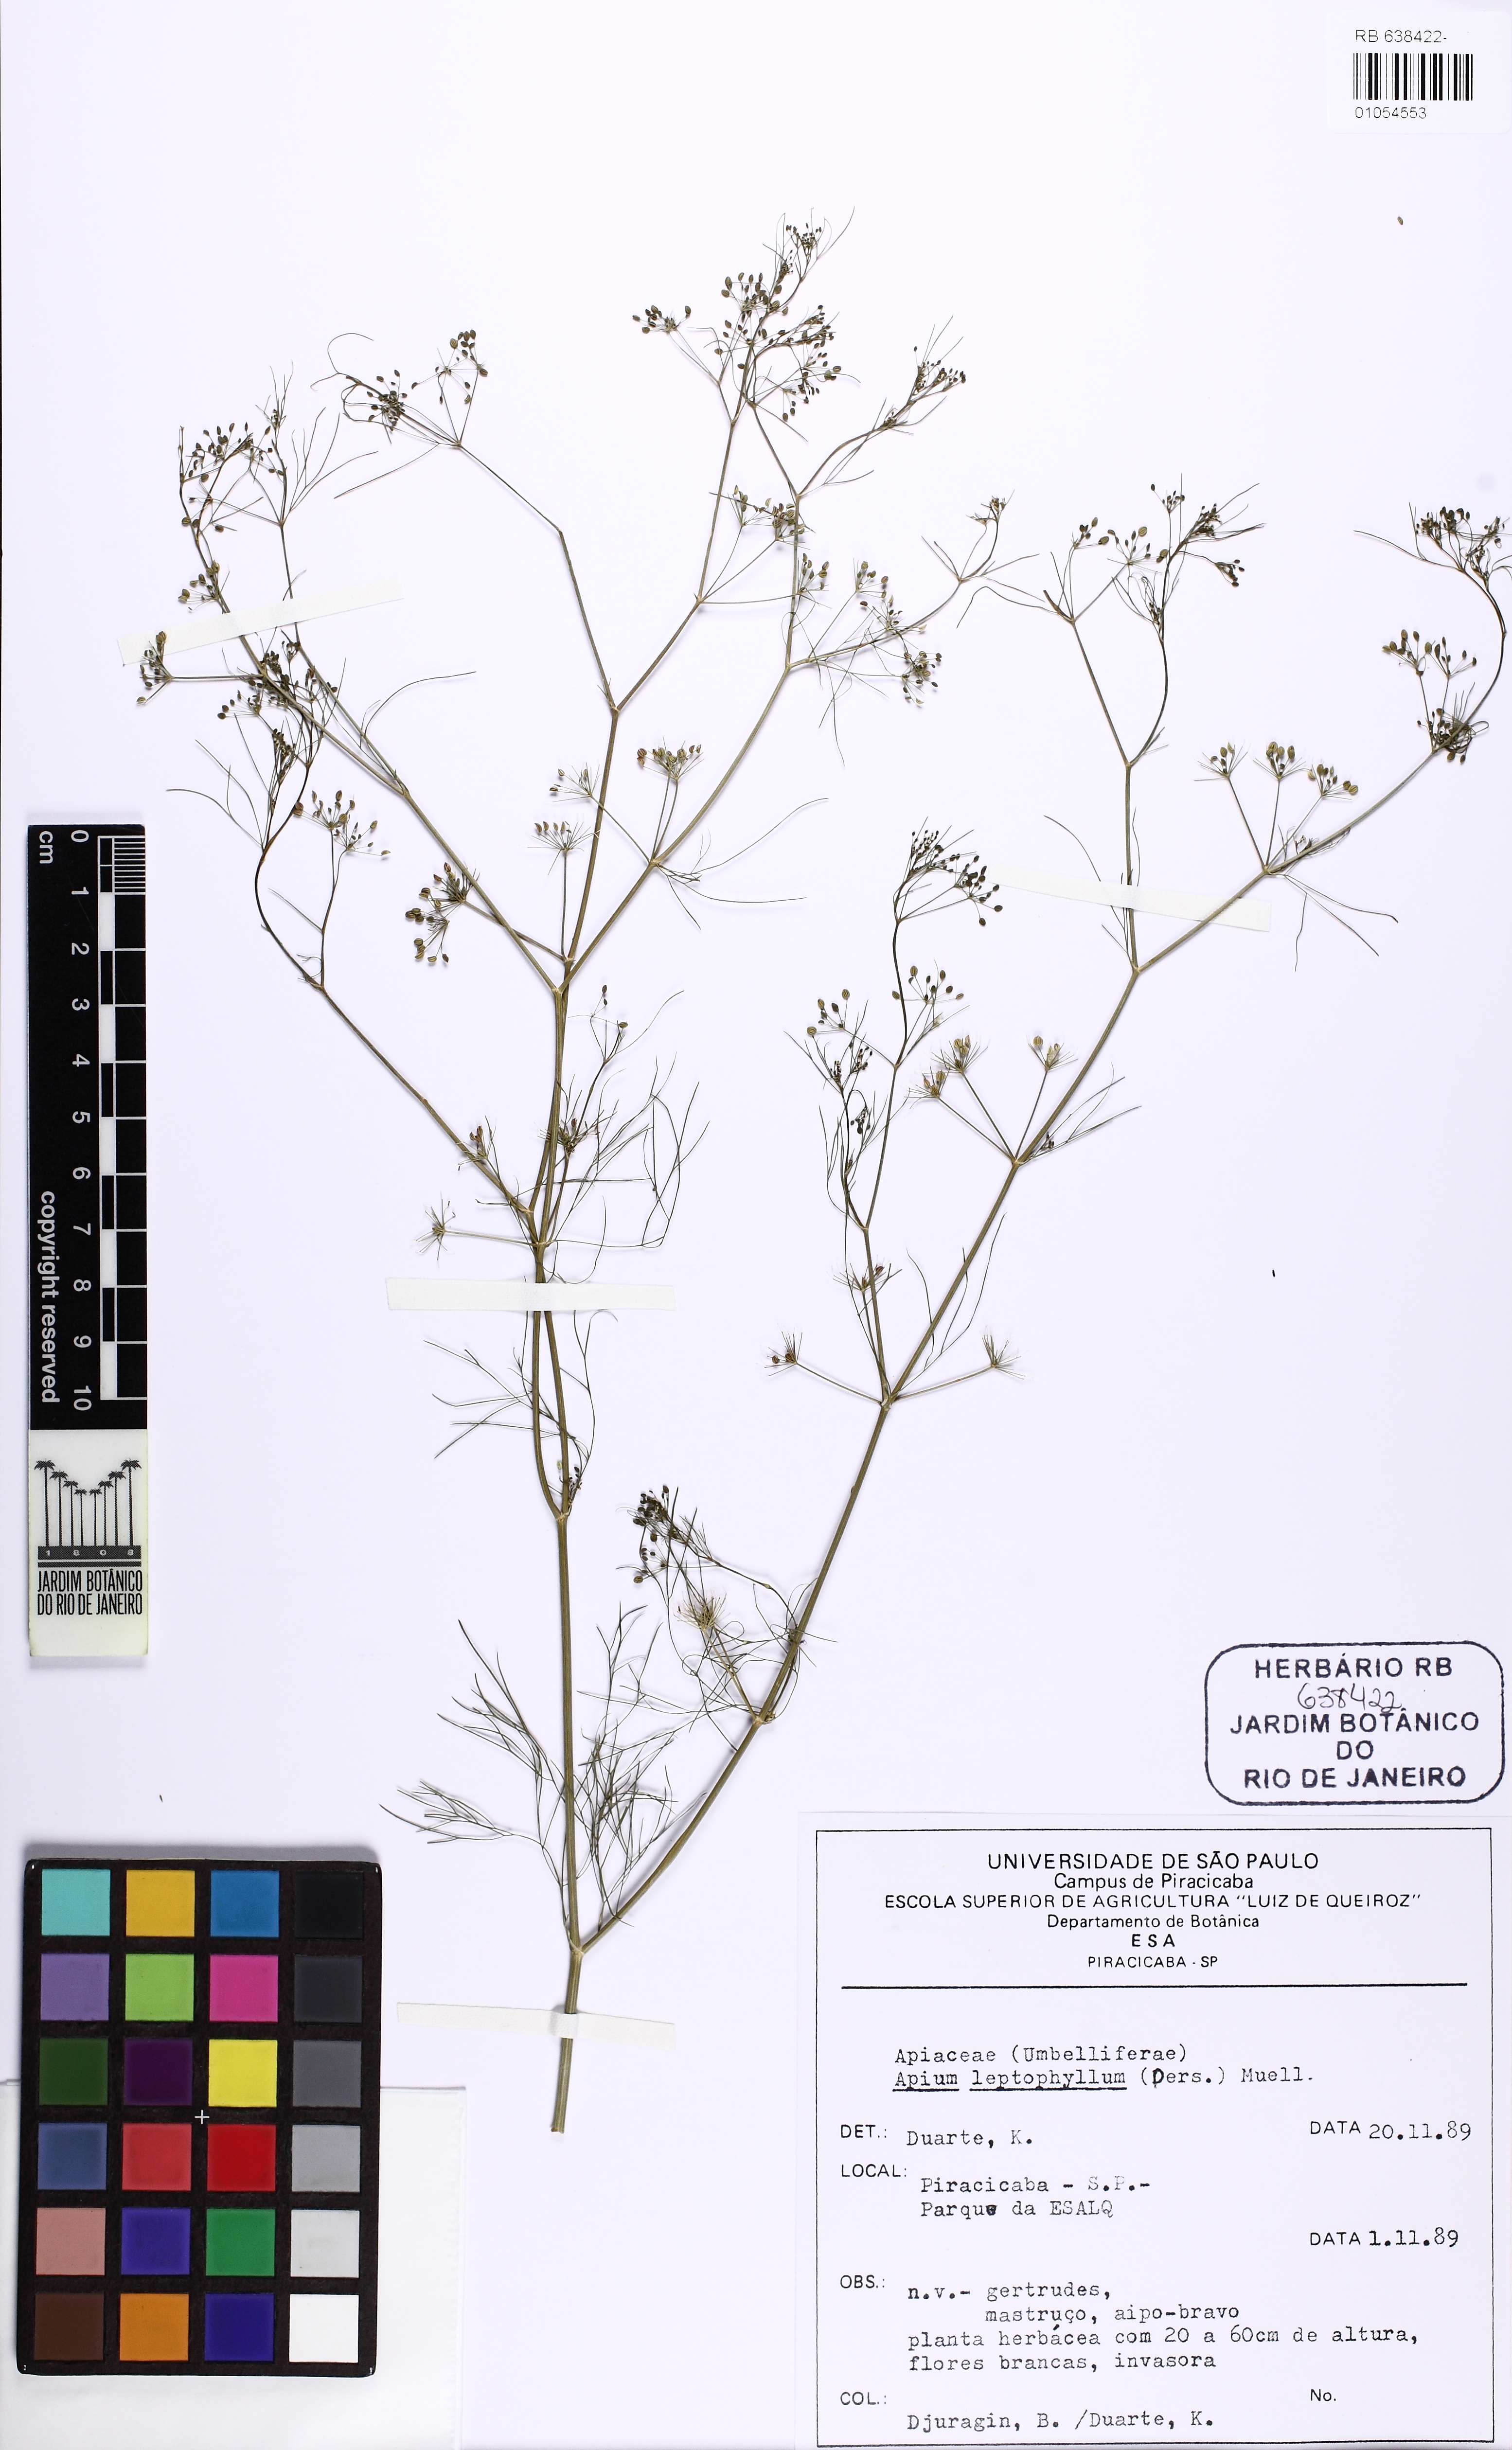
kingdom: Plantae
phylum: Tracheophyta
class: Magnoliopsida
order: Apiales
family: Apiaceae
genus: Cyclospermum
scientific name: Cyclospermum leptophyllum
